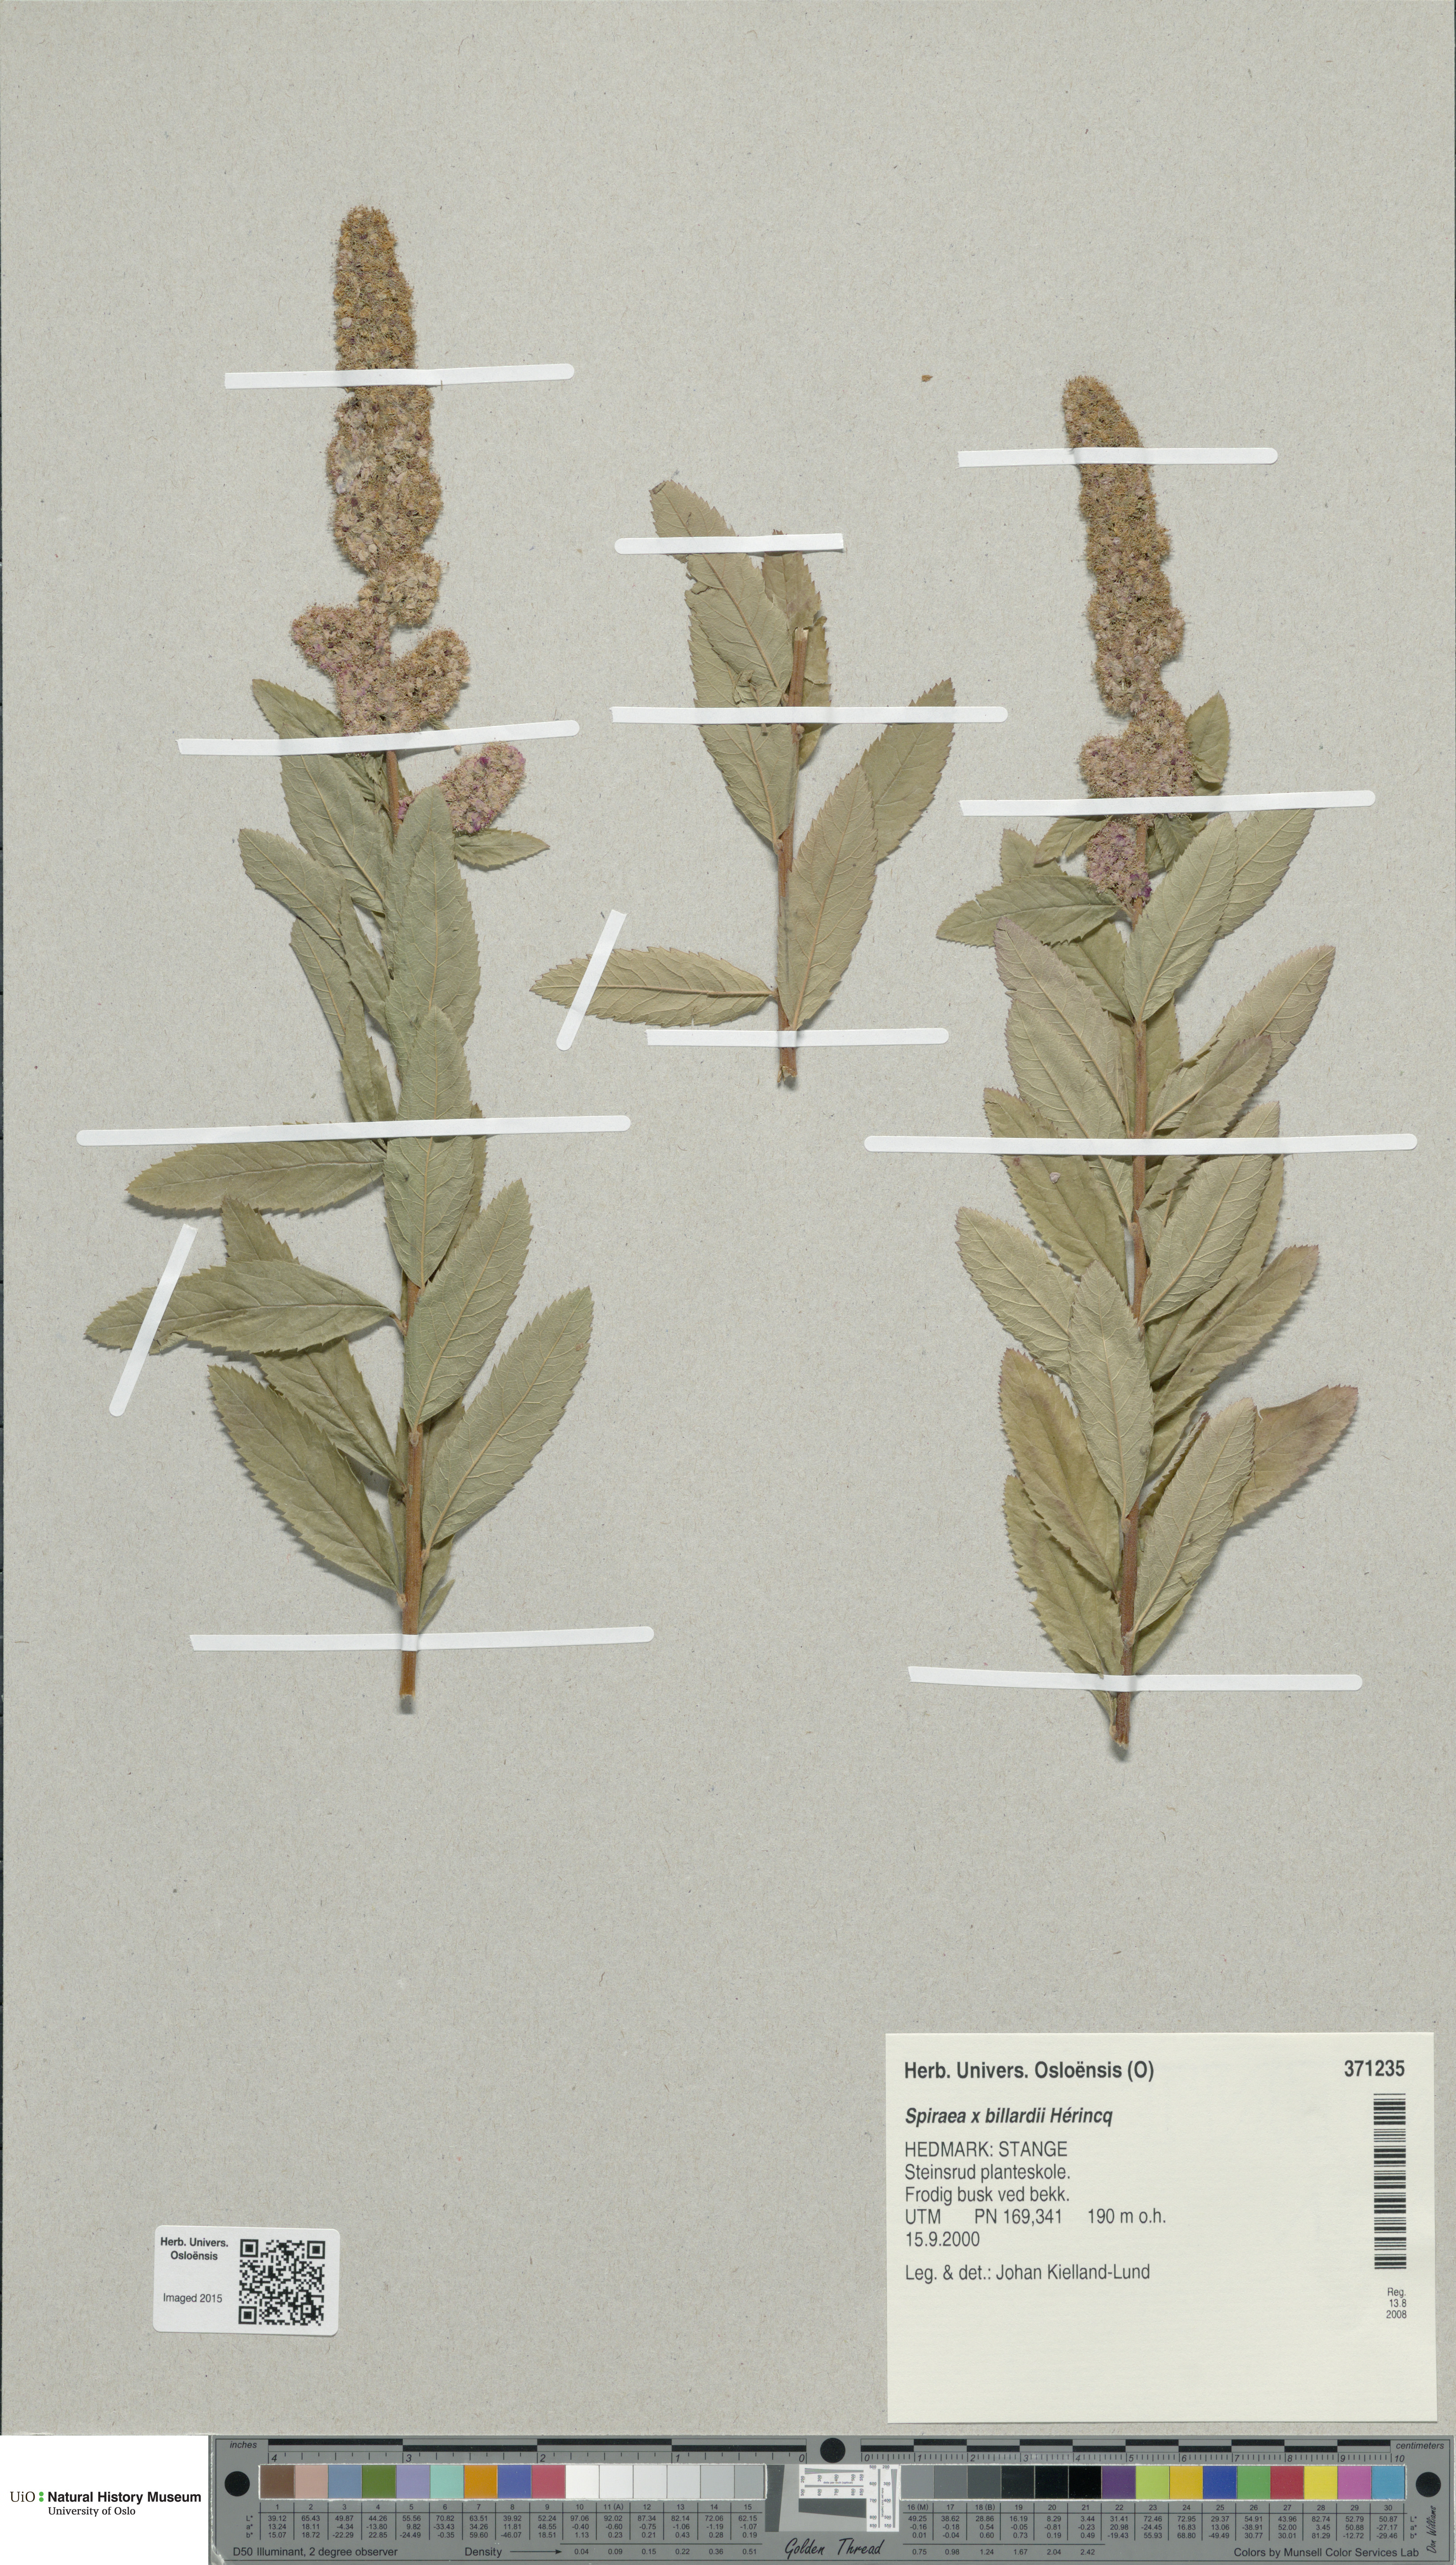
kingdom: Plantae
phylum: Tracheophyta
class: Magnoliopsida
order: Rosales
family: Rosaceae
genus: Spiraea
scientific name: Spiraea billardii
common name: Billard's bridewort
